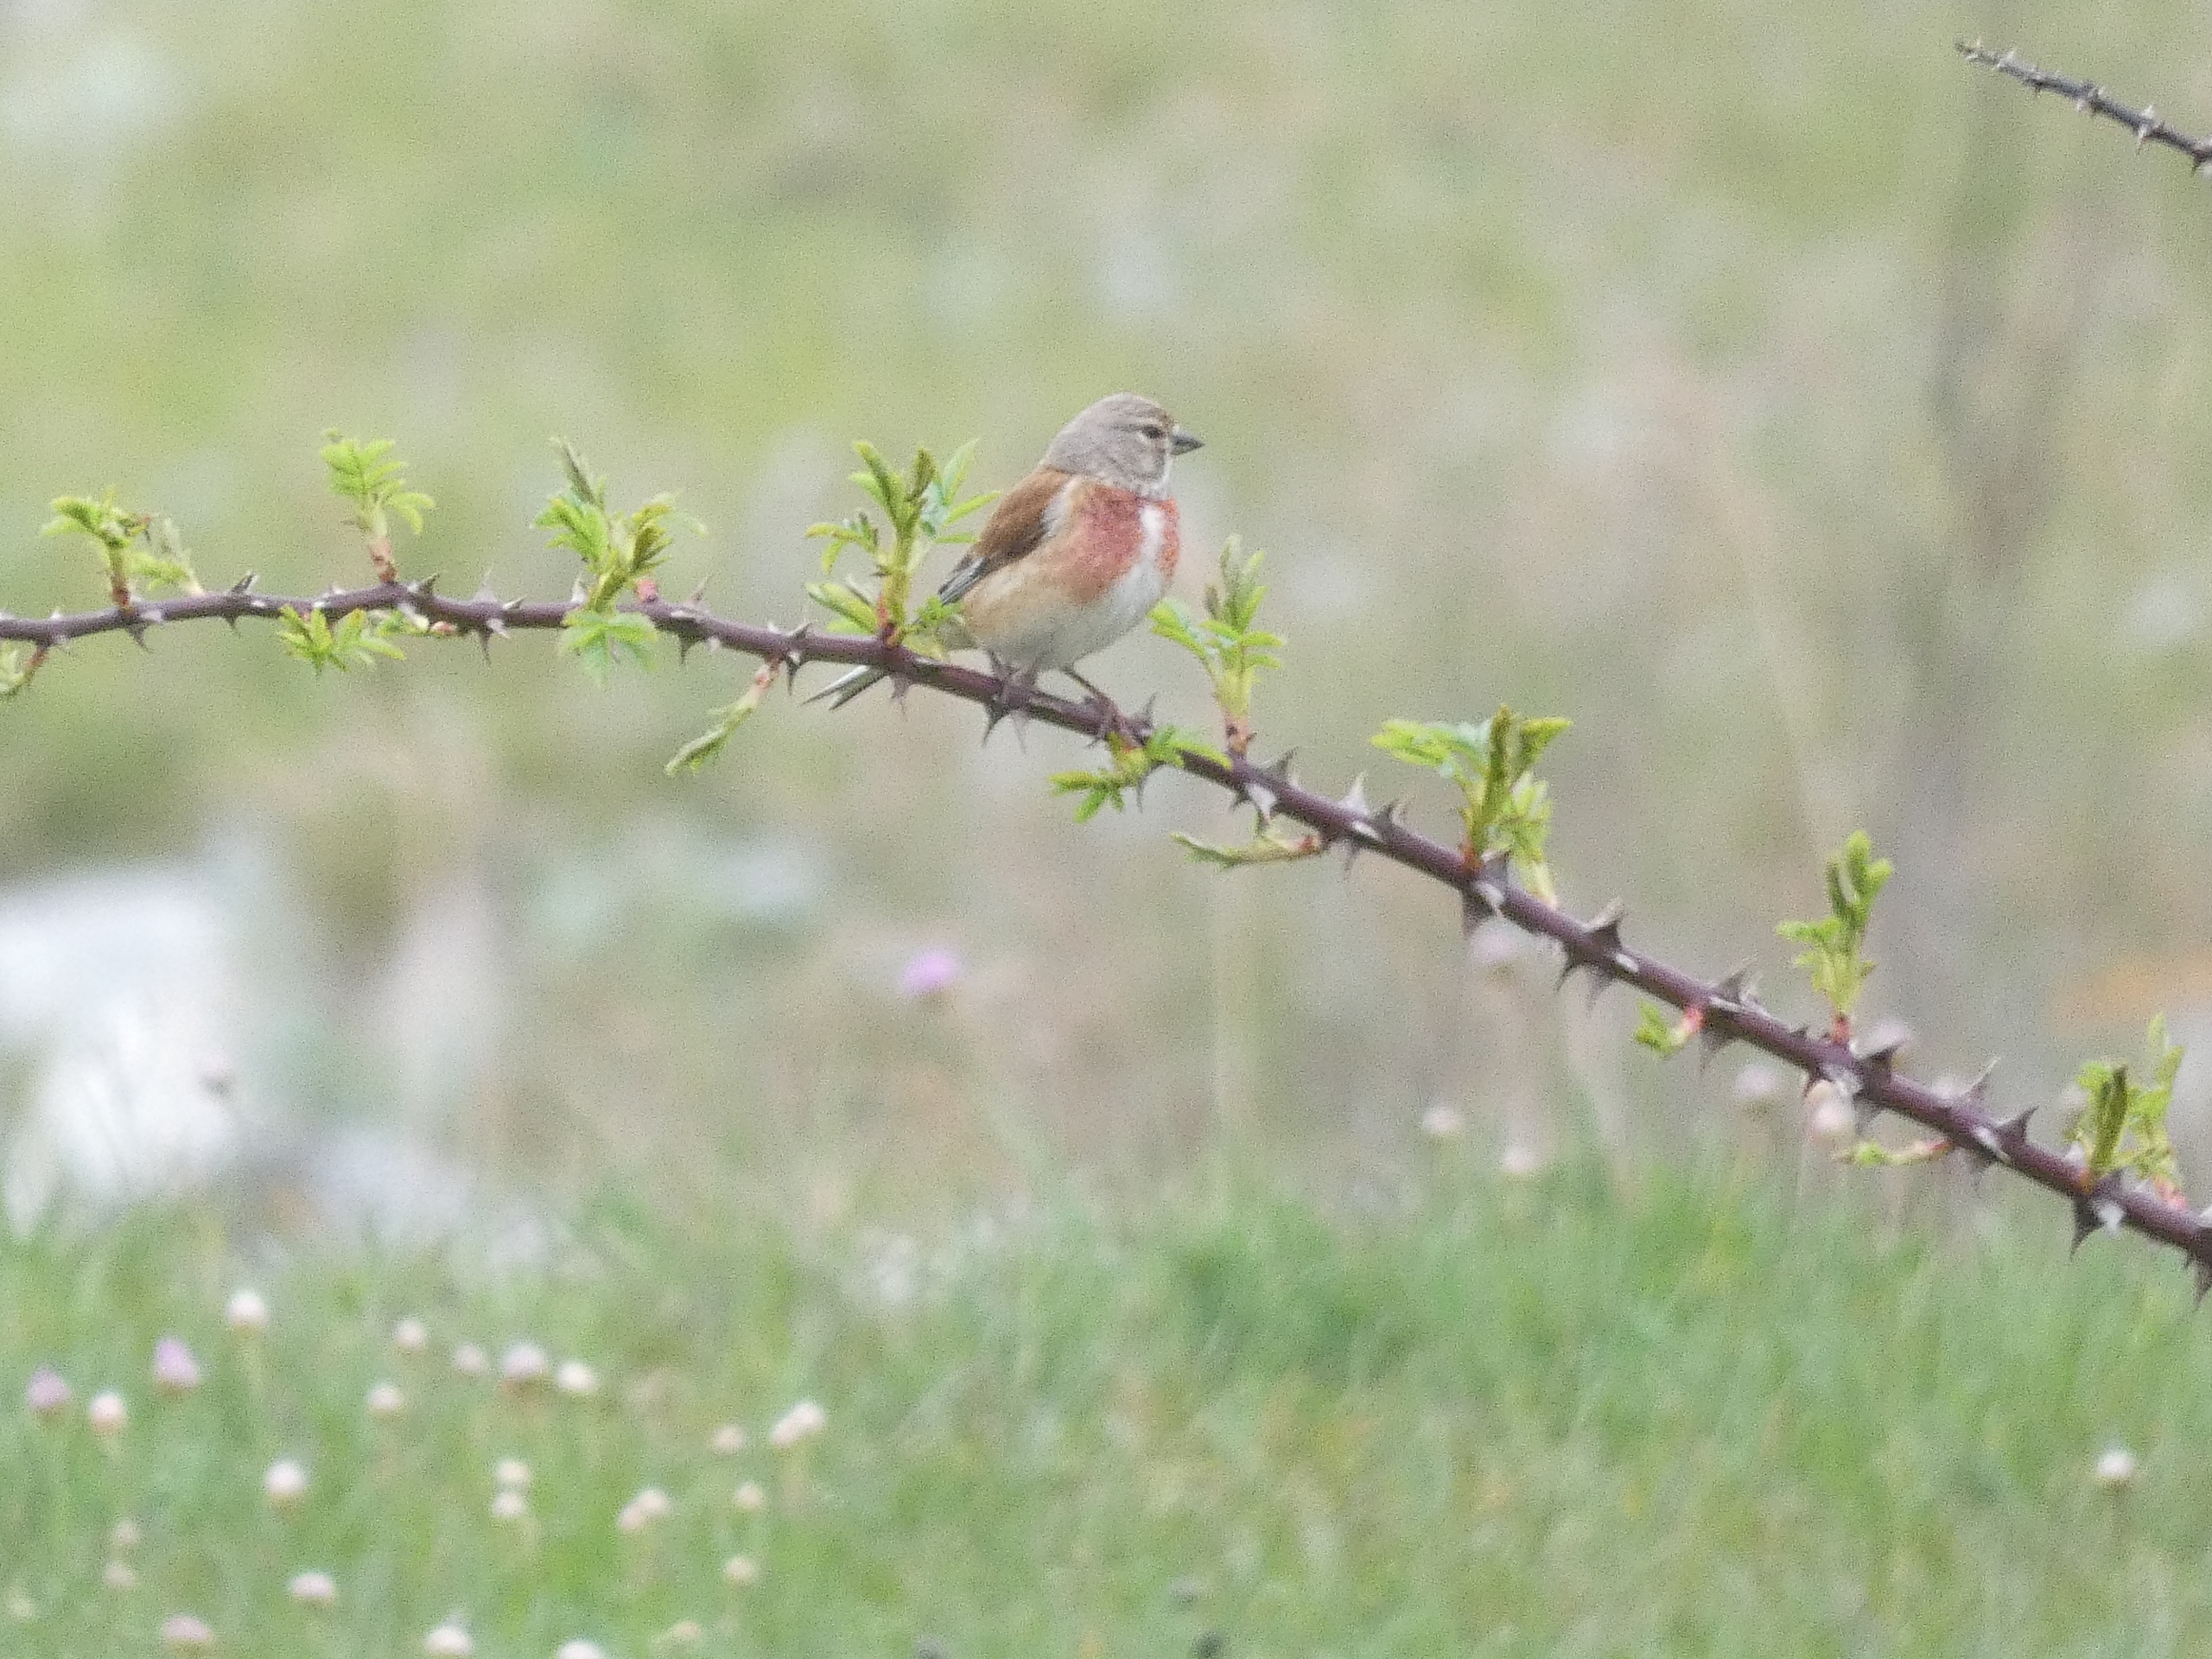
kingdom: Animalia
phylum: Chordata
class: Aves
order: Passeriformes
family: Fringillidae
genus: Linaria
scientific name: Linaria cannabina
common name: Tornirisk
